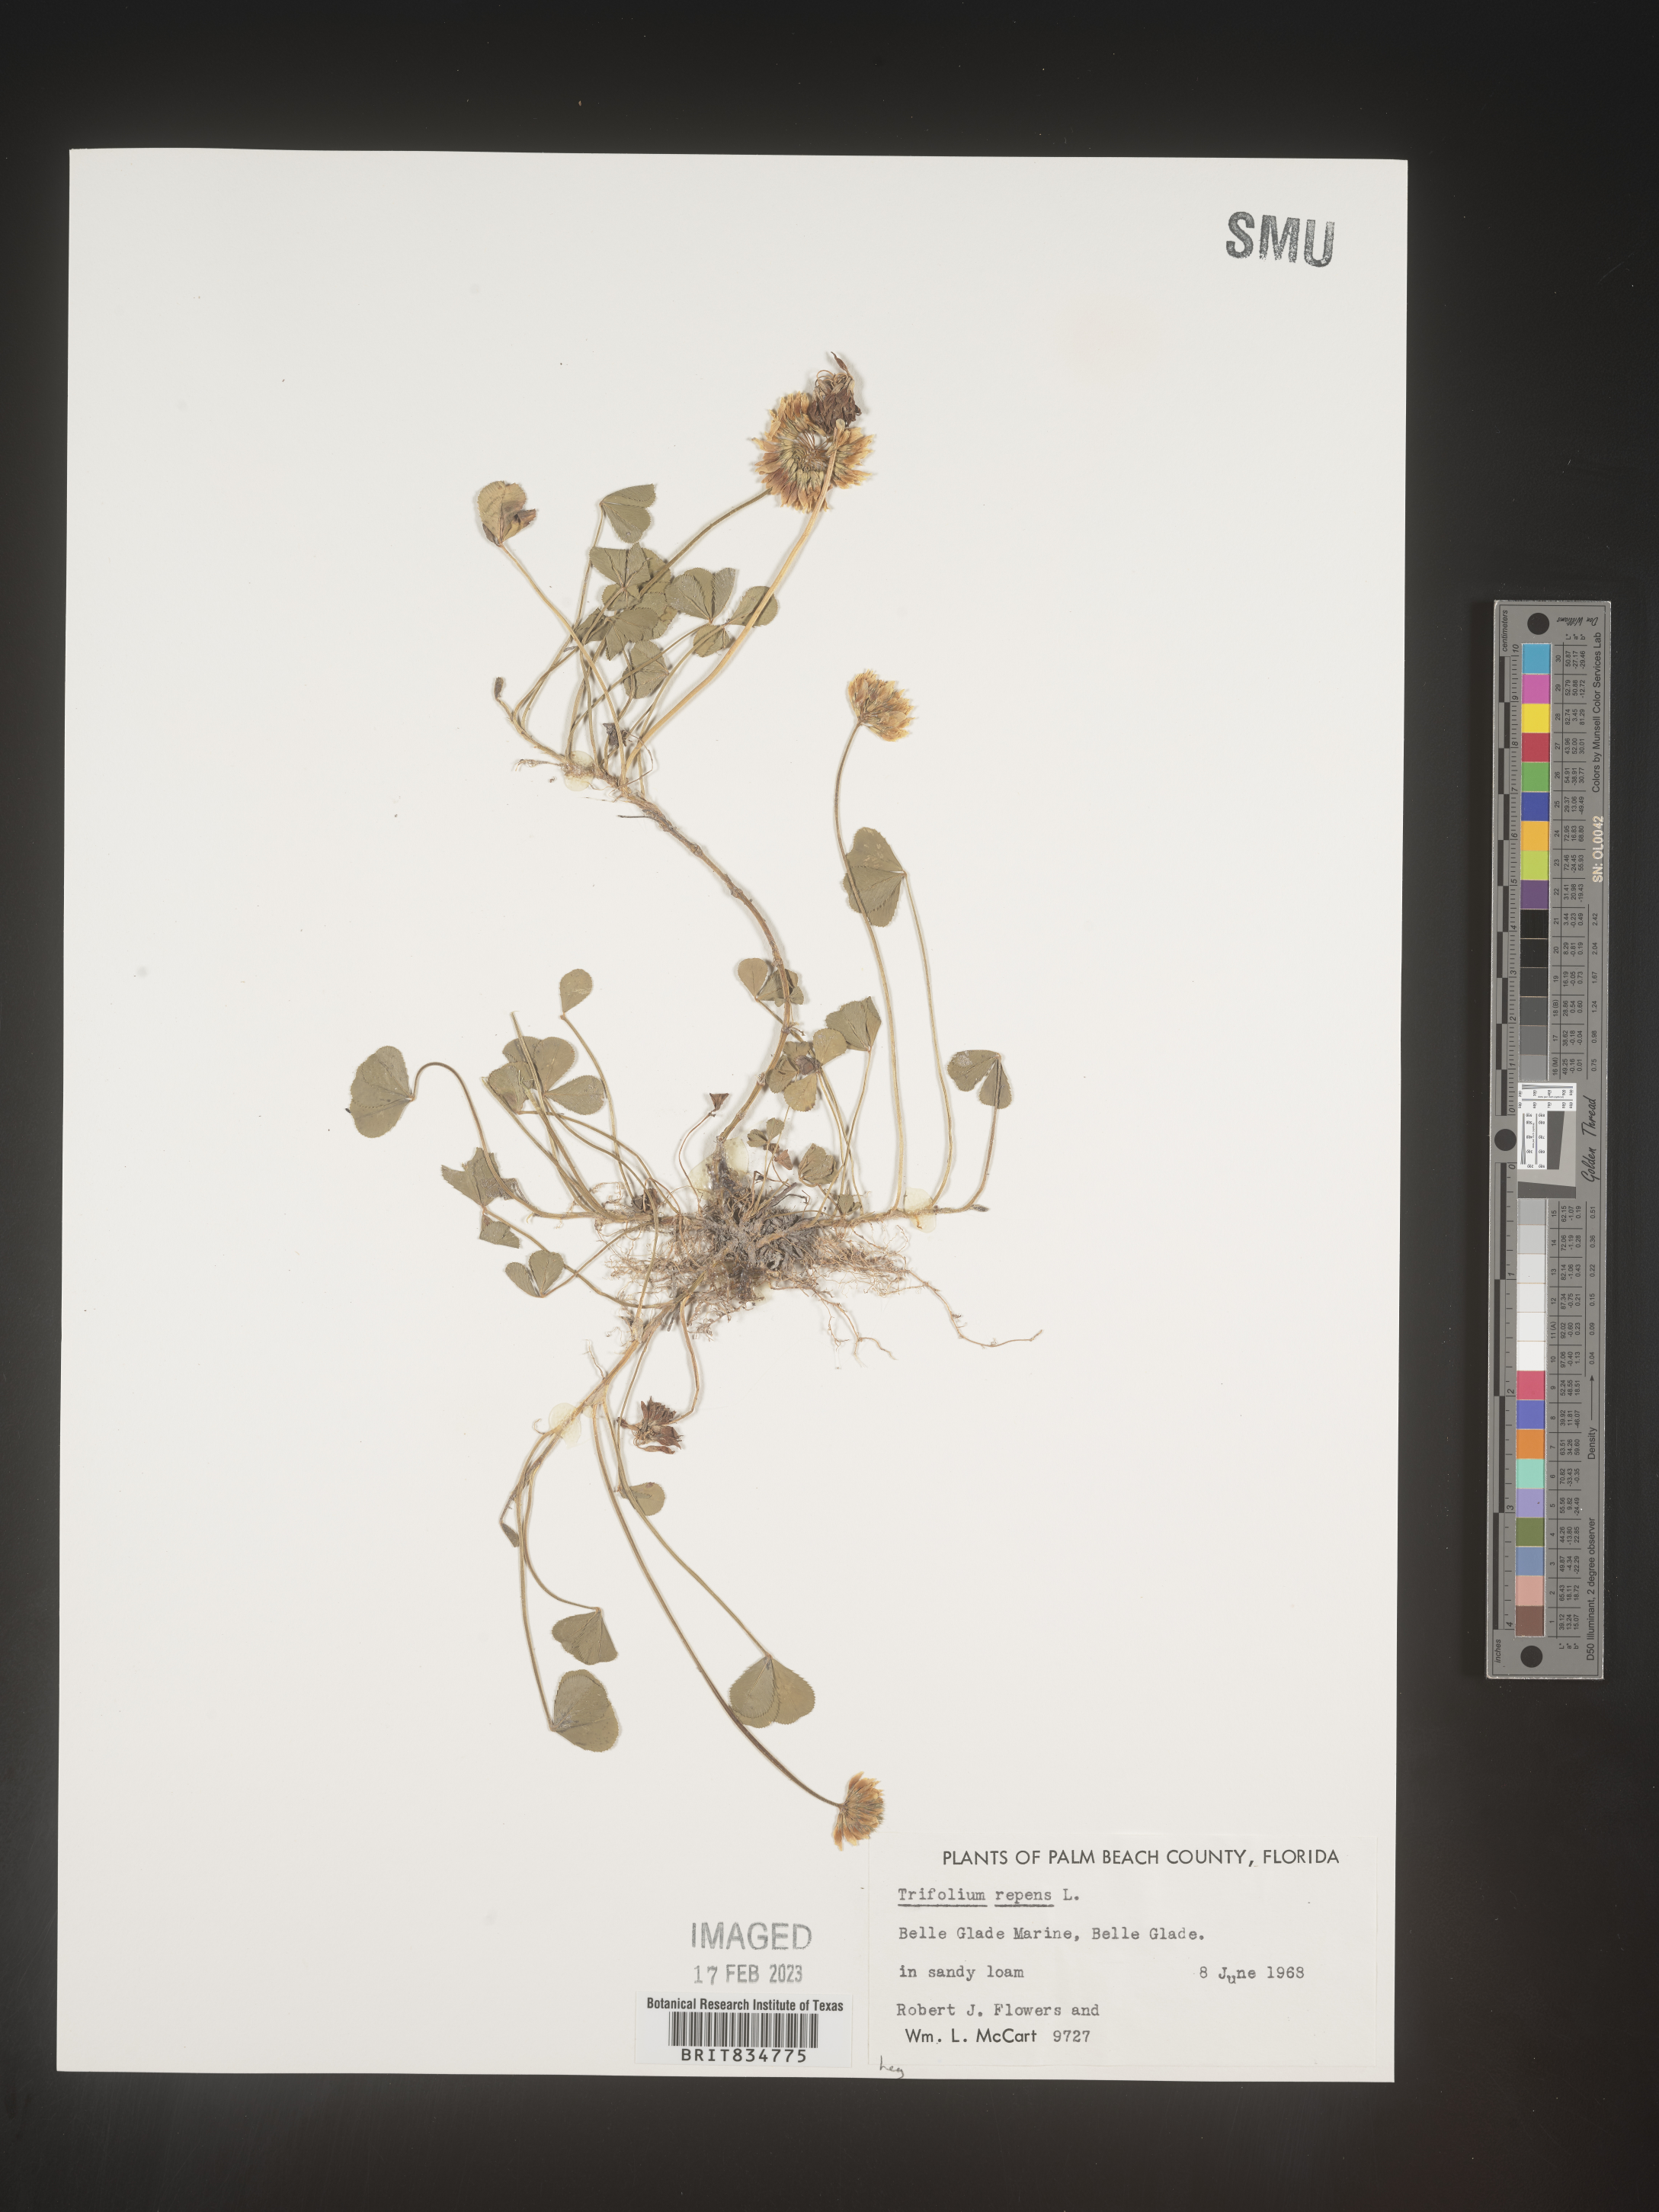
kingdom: Plantae
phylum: Tracheophyta
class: Magnoliopsida
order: Fabales
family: Fabaceae
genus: Trifolium
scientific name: Trifolium repens
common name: White clover
